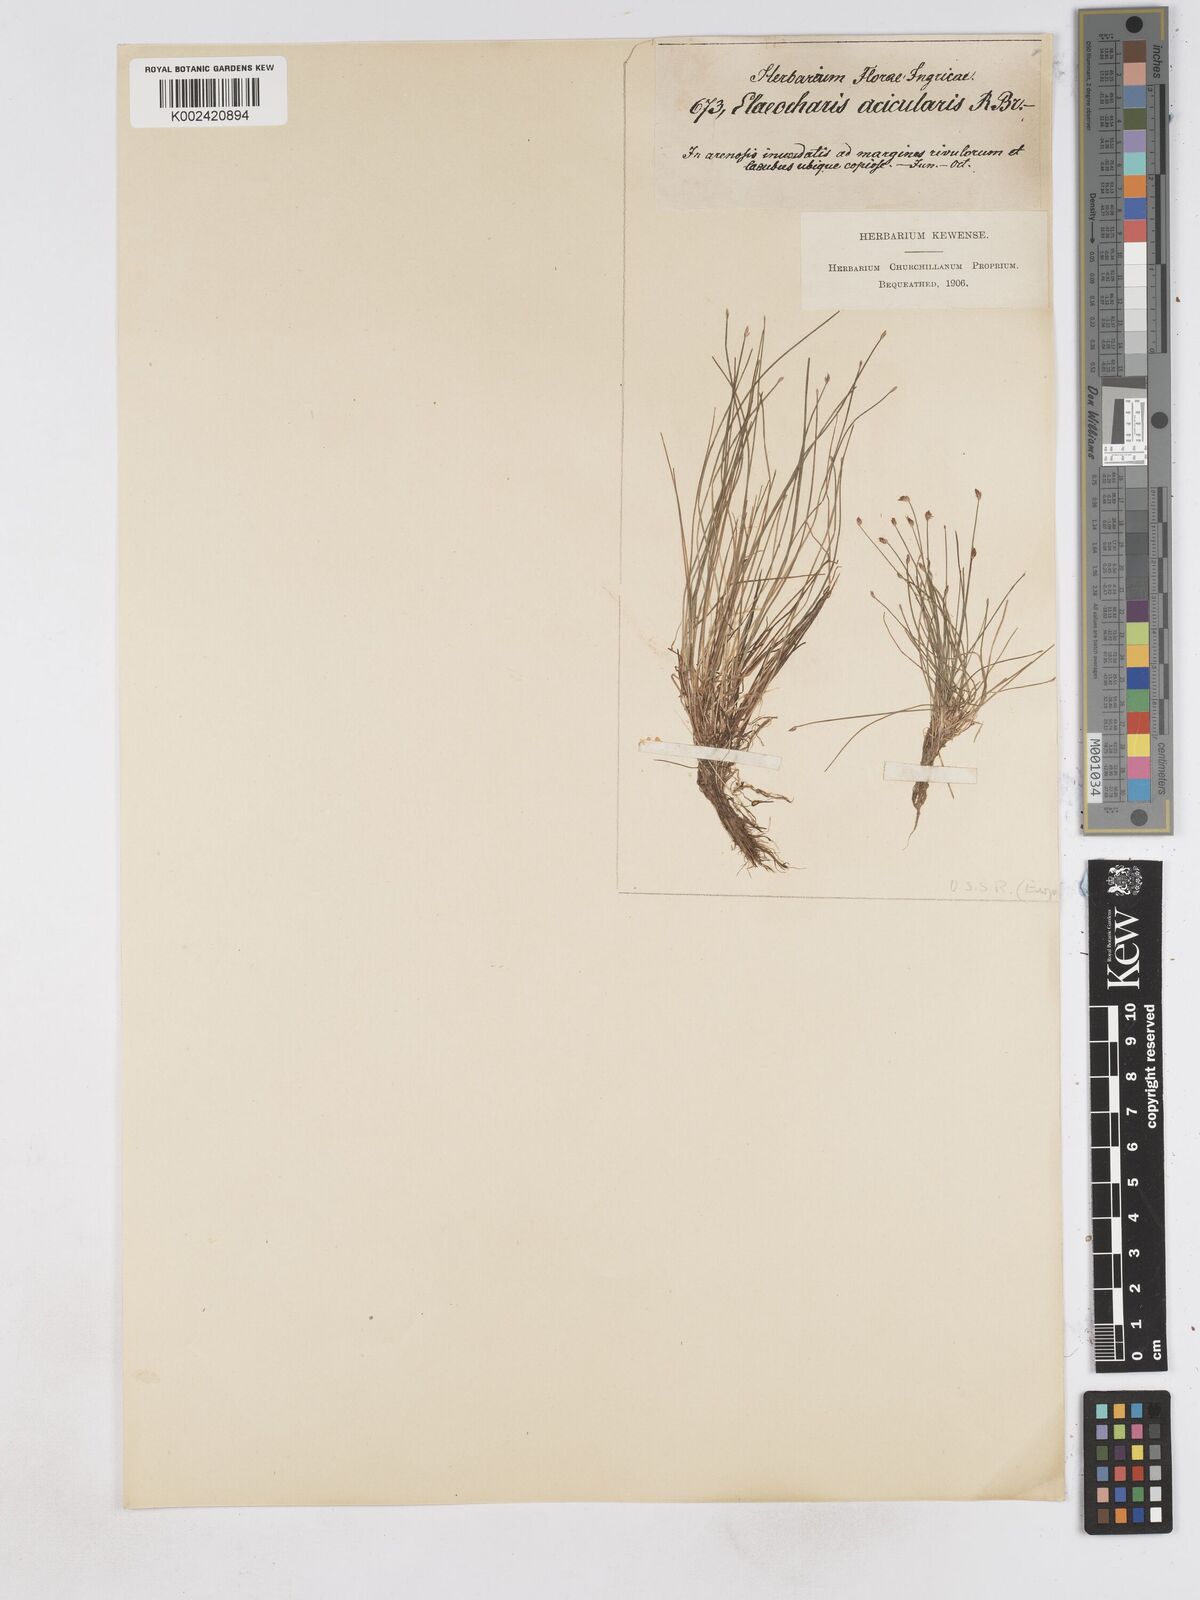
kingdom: Plantae
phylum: Tracheophyta
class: Liliopsida
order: Poales
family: Cyperaceae
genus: Eleocharis
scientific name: Eleocharis acicularis
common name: Needle spike-rush
